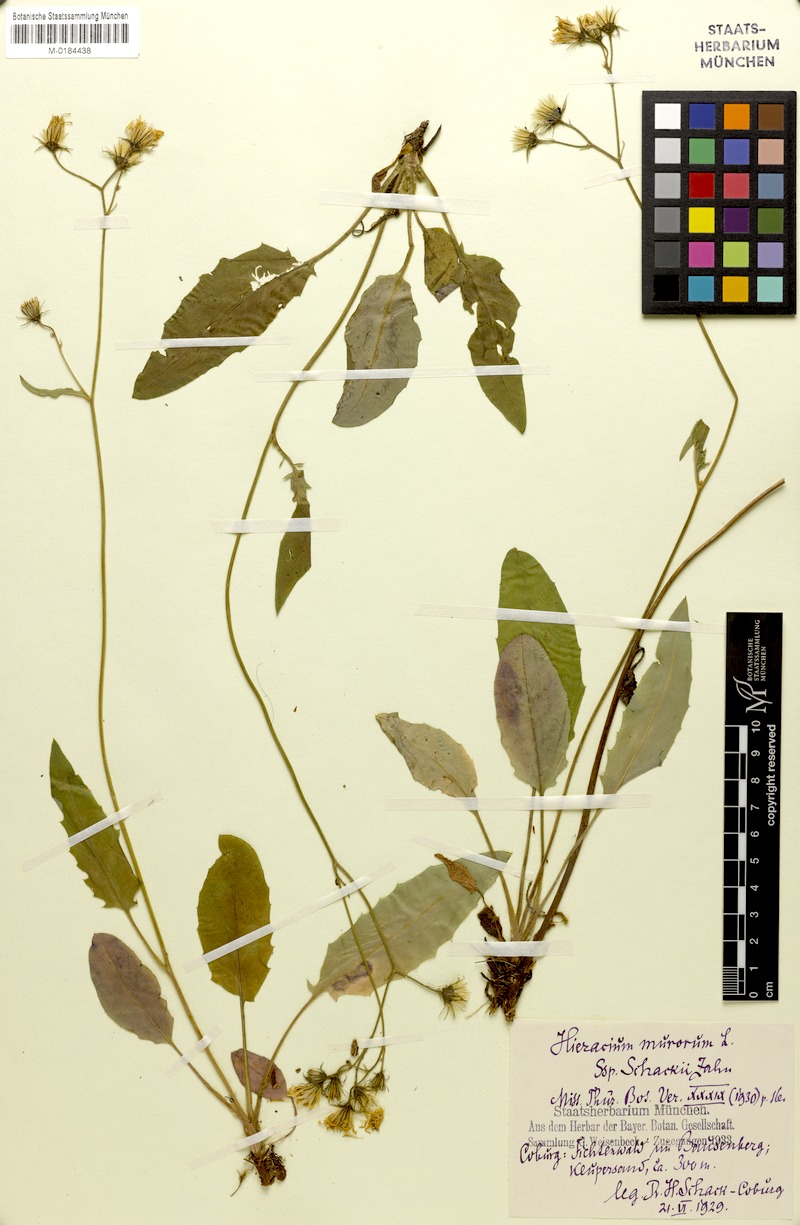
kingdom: Plantae
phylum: Tracheophyta
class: Magnoliopsida
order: Asterales
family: Asteraceae
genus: Hieracium
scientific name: Hieracium murorum
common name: Wall hawkweed
